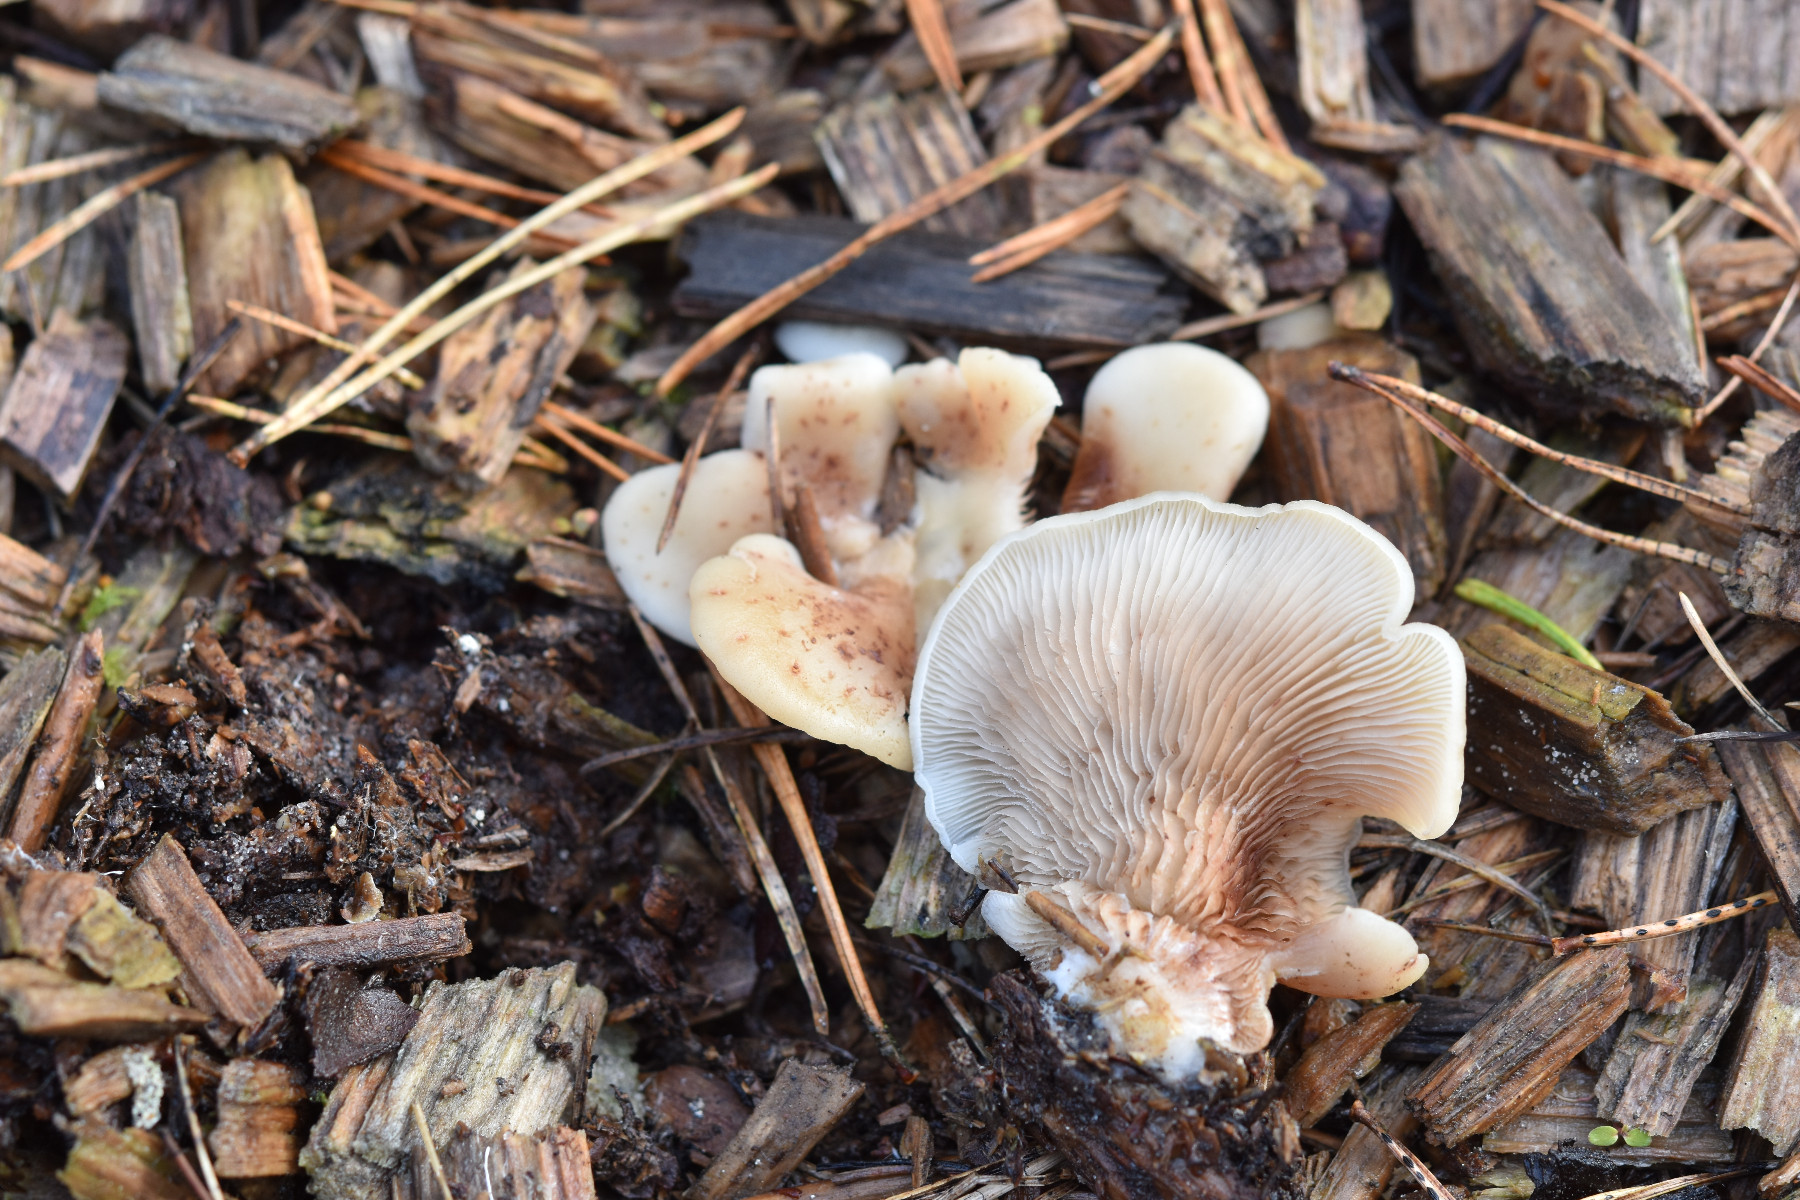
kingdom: Fungi
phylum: Basidiomycota
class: Agaricomycetes
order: Agaricales
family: Crepidotaceae
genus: Crepidotus
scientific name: Crepidotus stenocystis
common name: nåletræs-muslingesvamp
